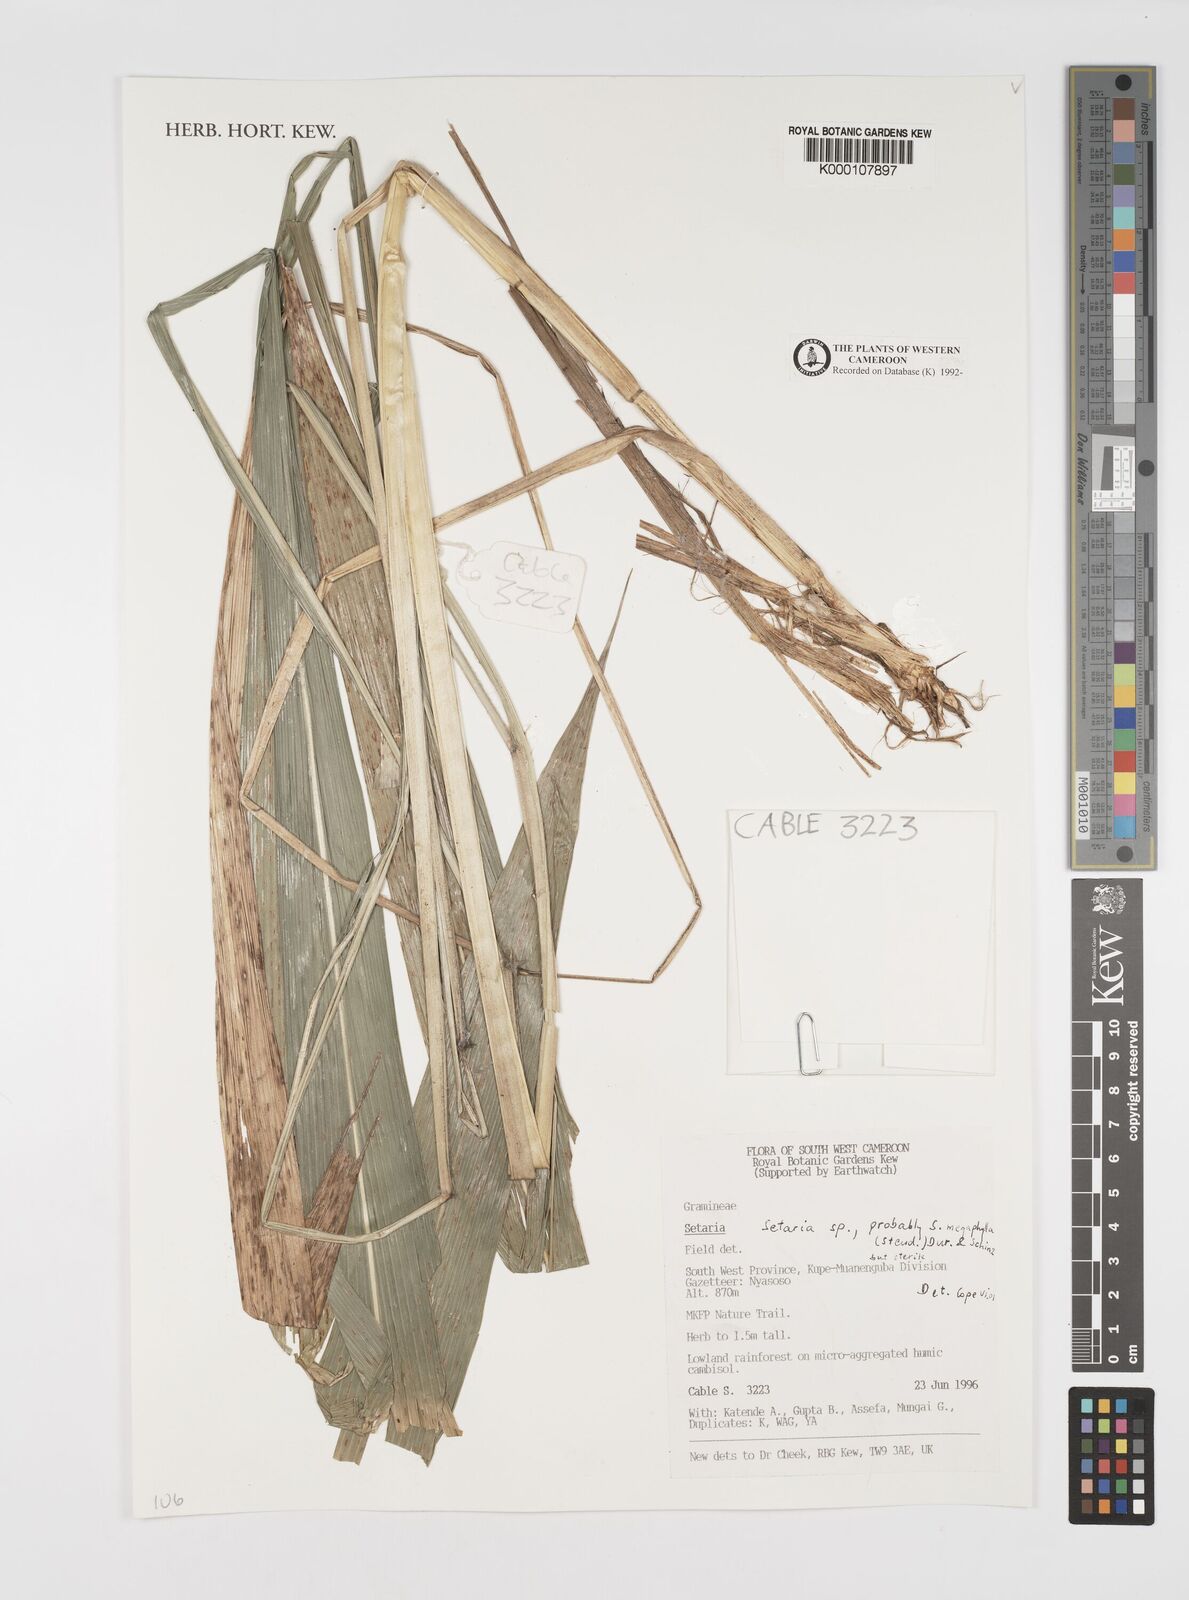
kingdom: Plantae
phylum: Tracheophyta
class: Liliopsida
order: Poales
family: Poaceae
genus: Setaria
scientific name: Setaria
